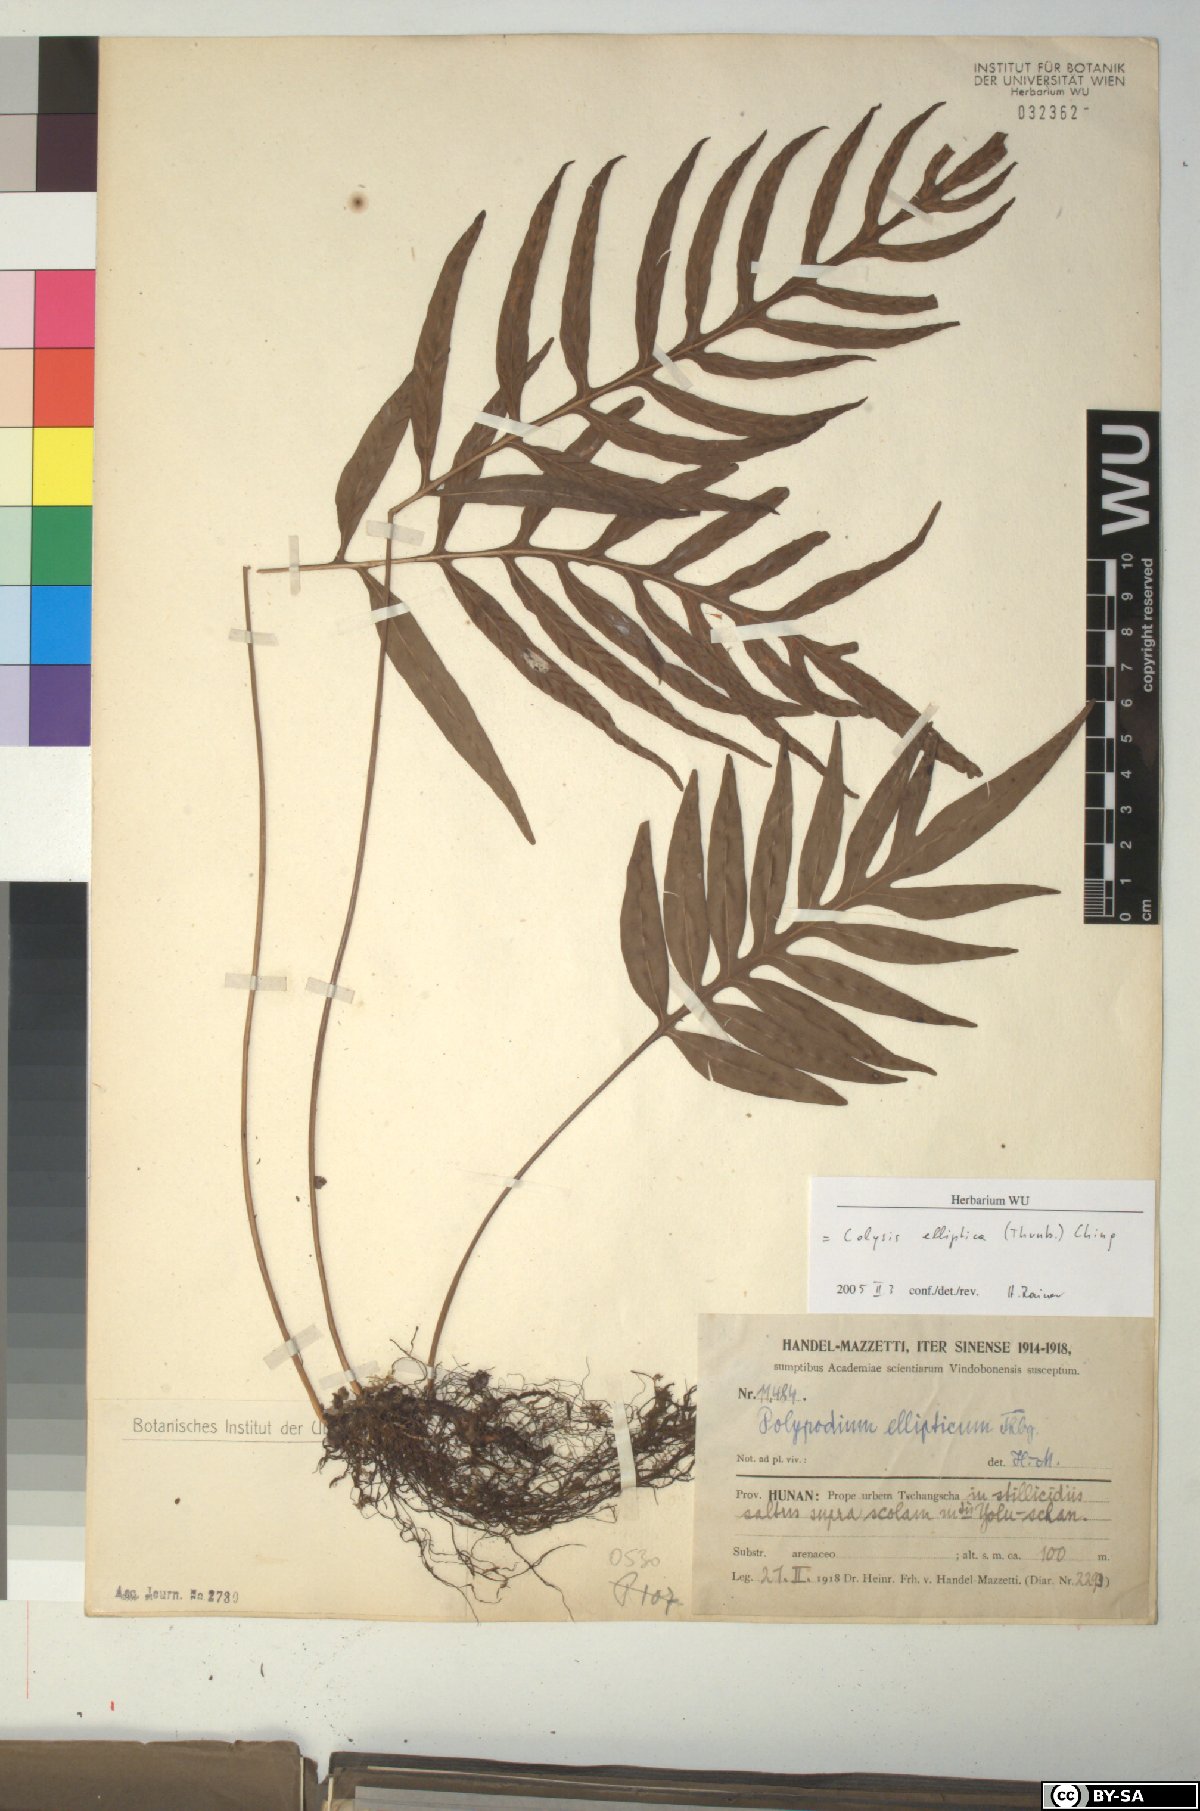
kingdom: Plantae
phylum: Tracheophyta
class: Polypodiopsida
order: Polypodiales
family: Polypodiaceae
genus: Leptochilus
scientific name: Leptochilus ellipticus
